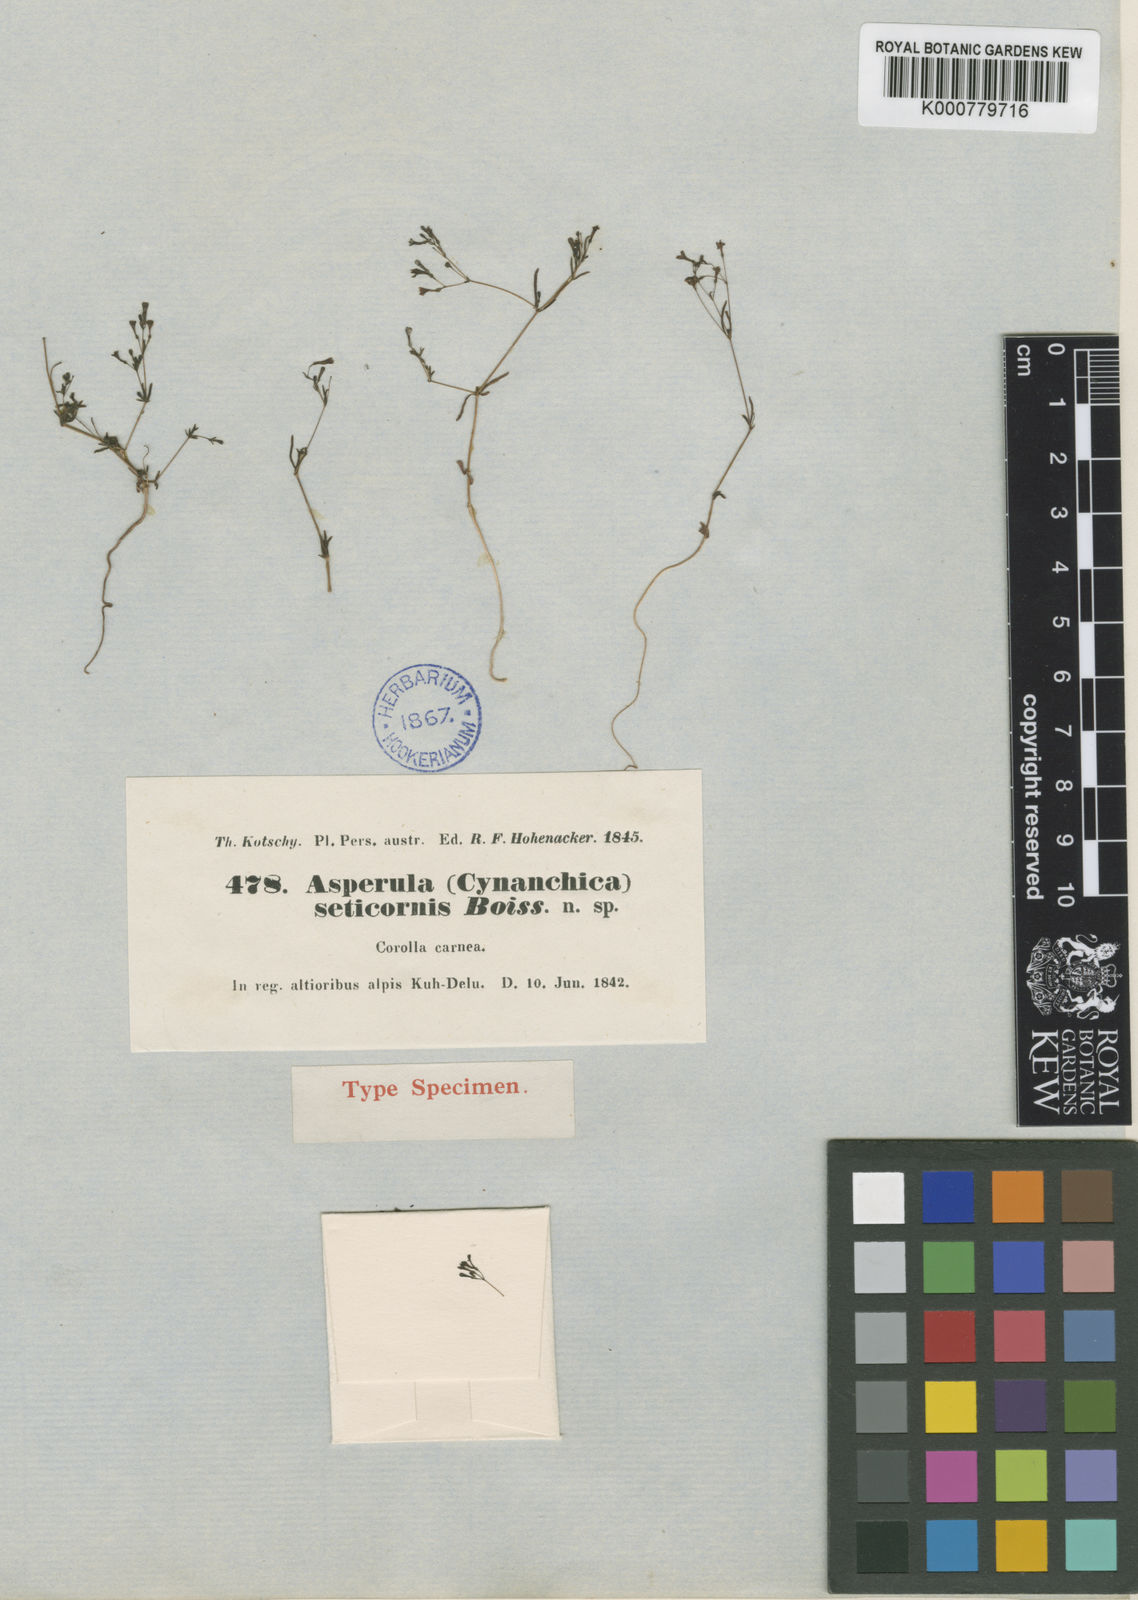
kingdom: Plantae
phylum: Tracheophyta
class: Magnoliopsida
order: Gentianales
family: Rubiaceae
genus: Asperula
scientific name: Asperula seticornis
